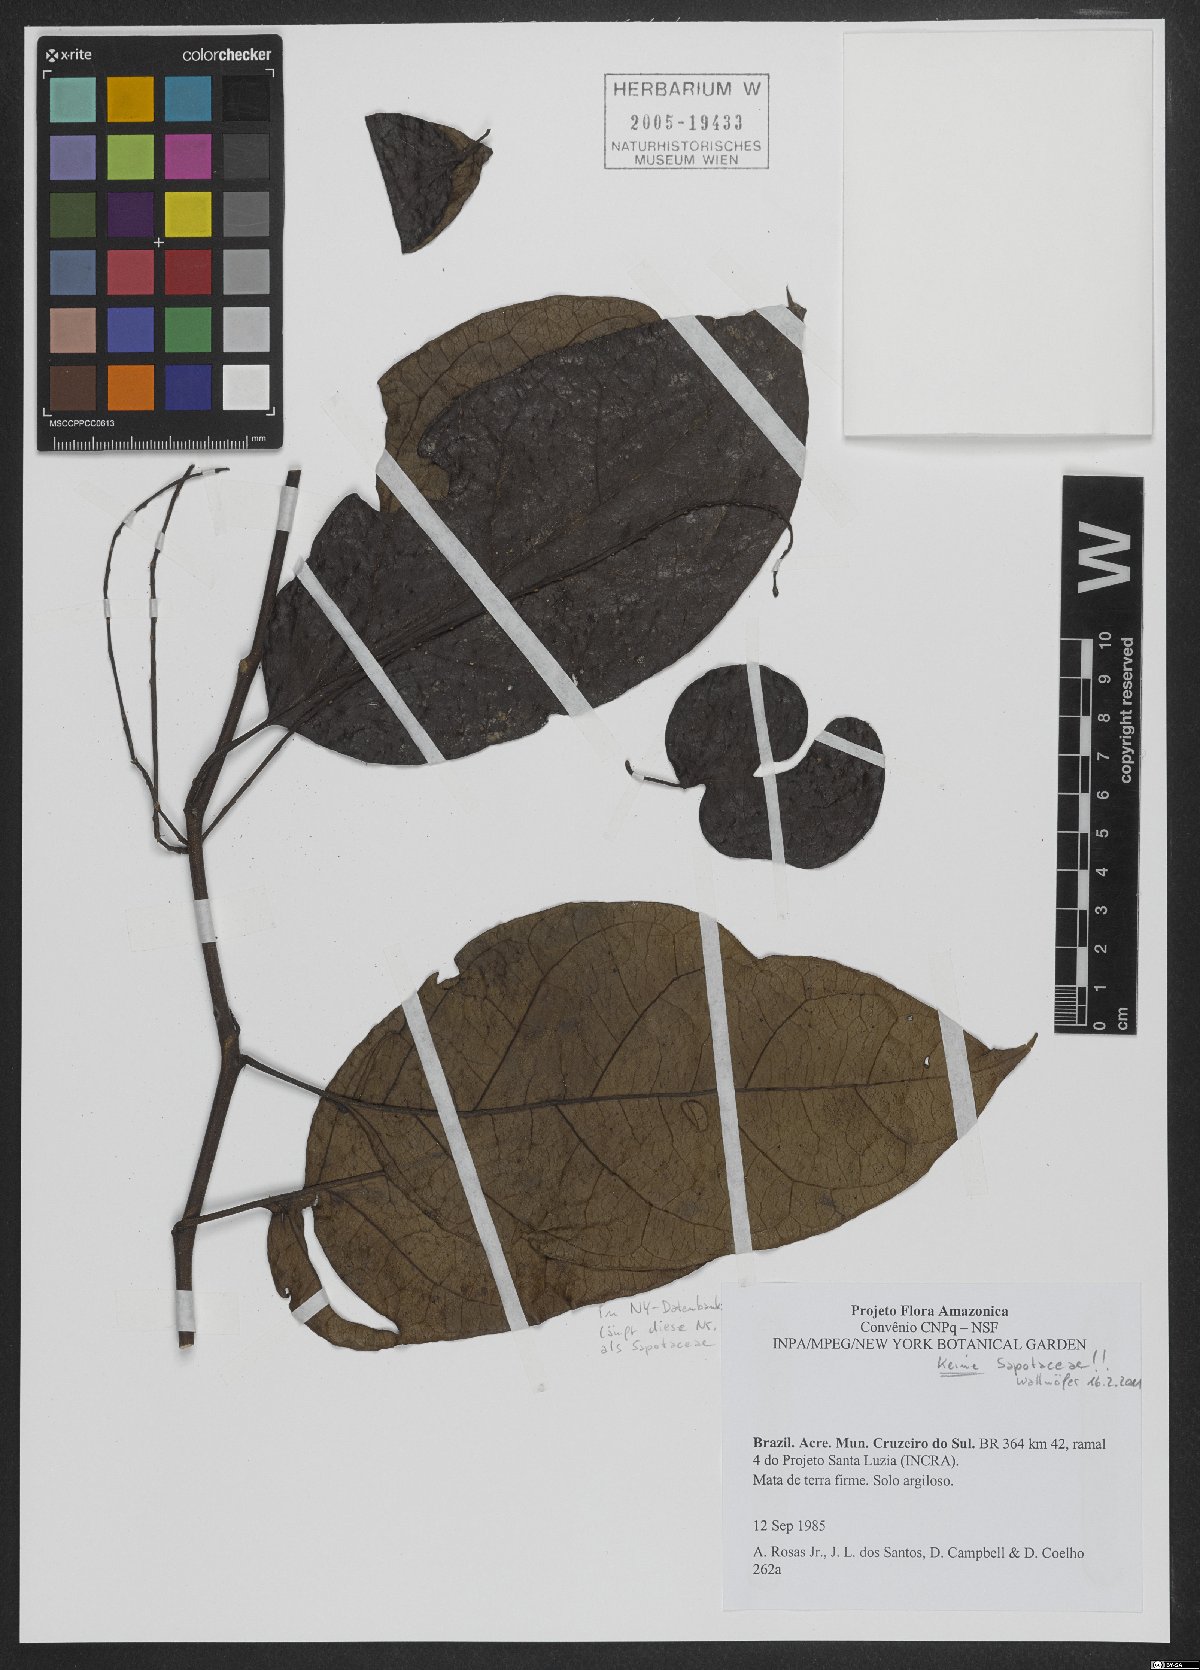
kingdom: Plantae
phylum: Tracheophyta
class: Magnoliopsida
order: Ericales
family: Sapotaceae
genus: Pouteria
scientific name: Pouteria cladantha
